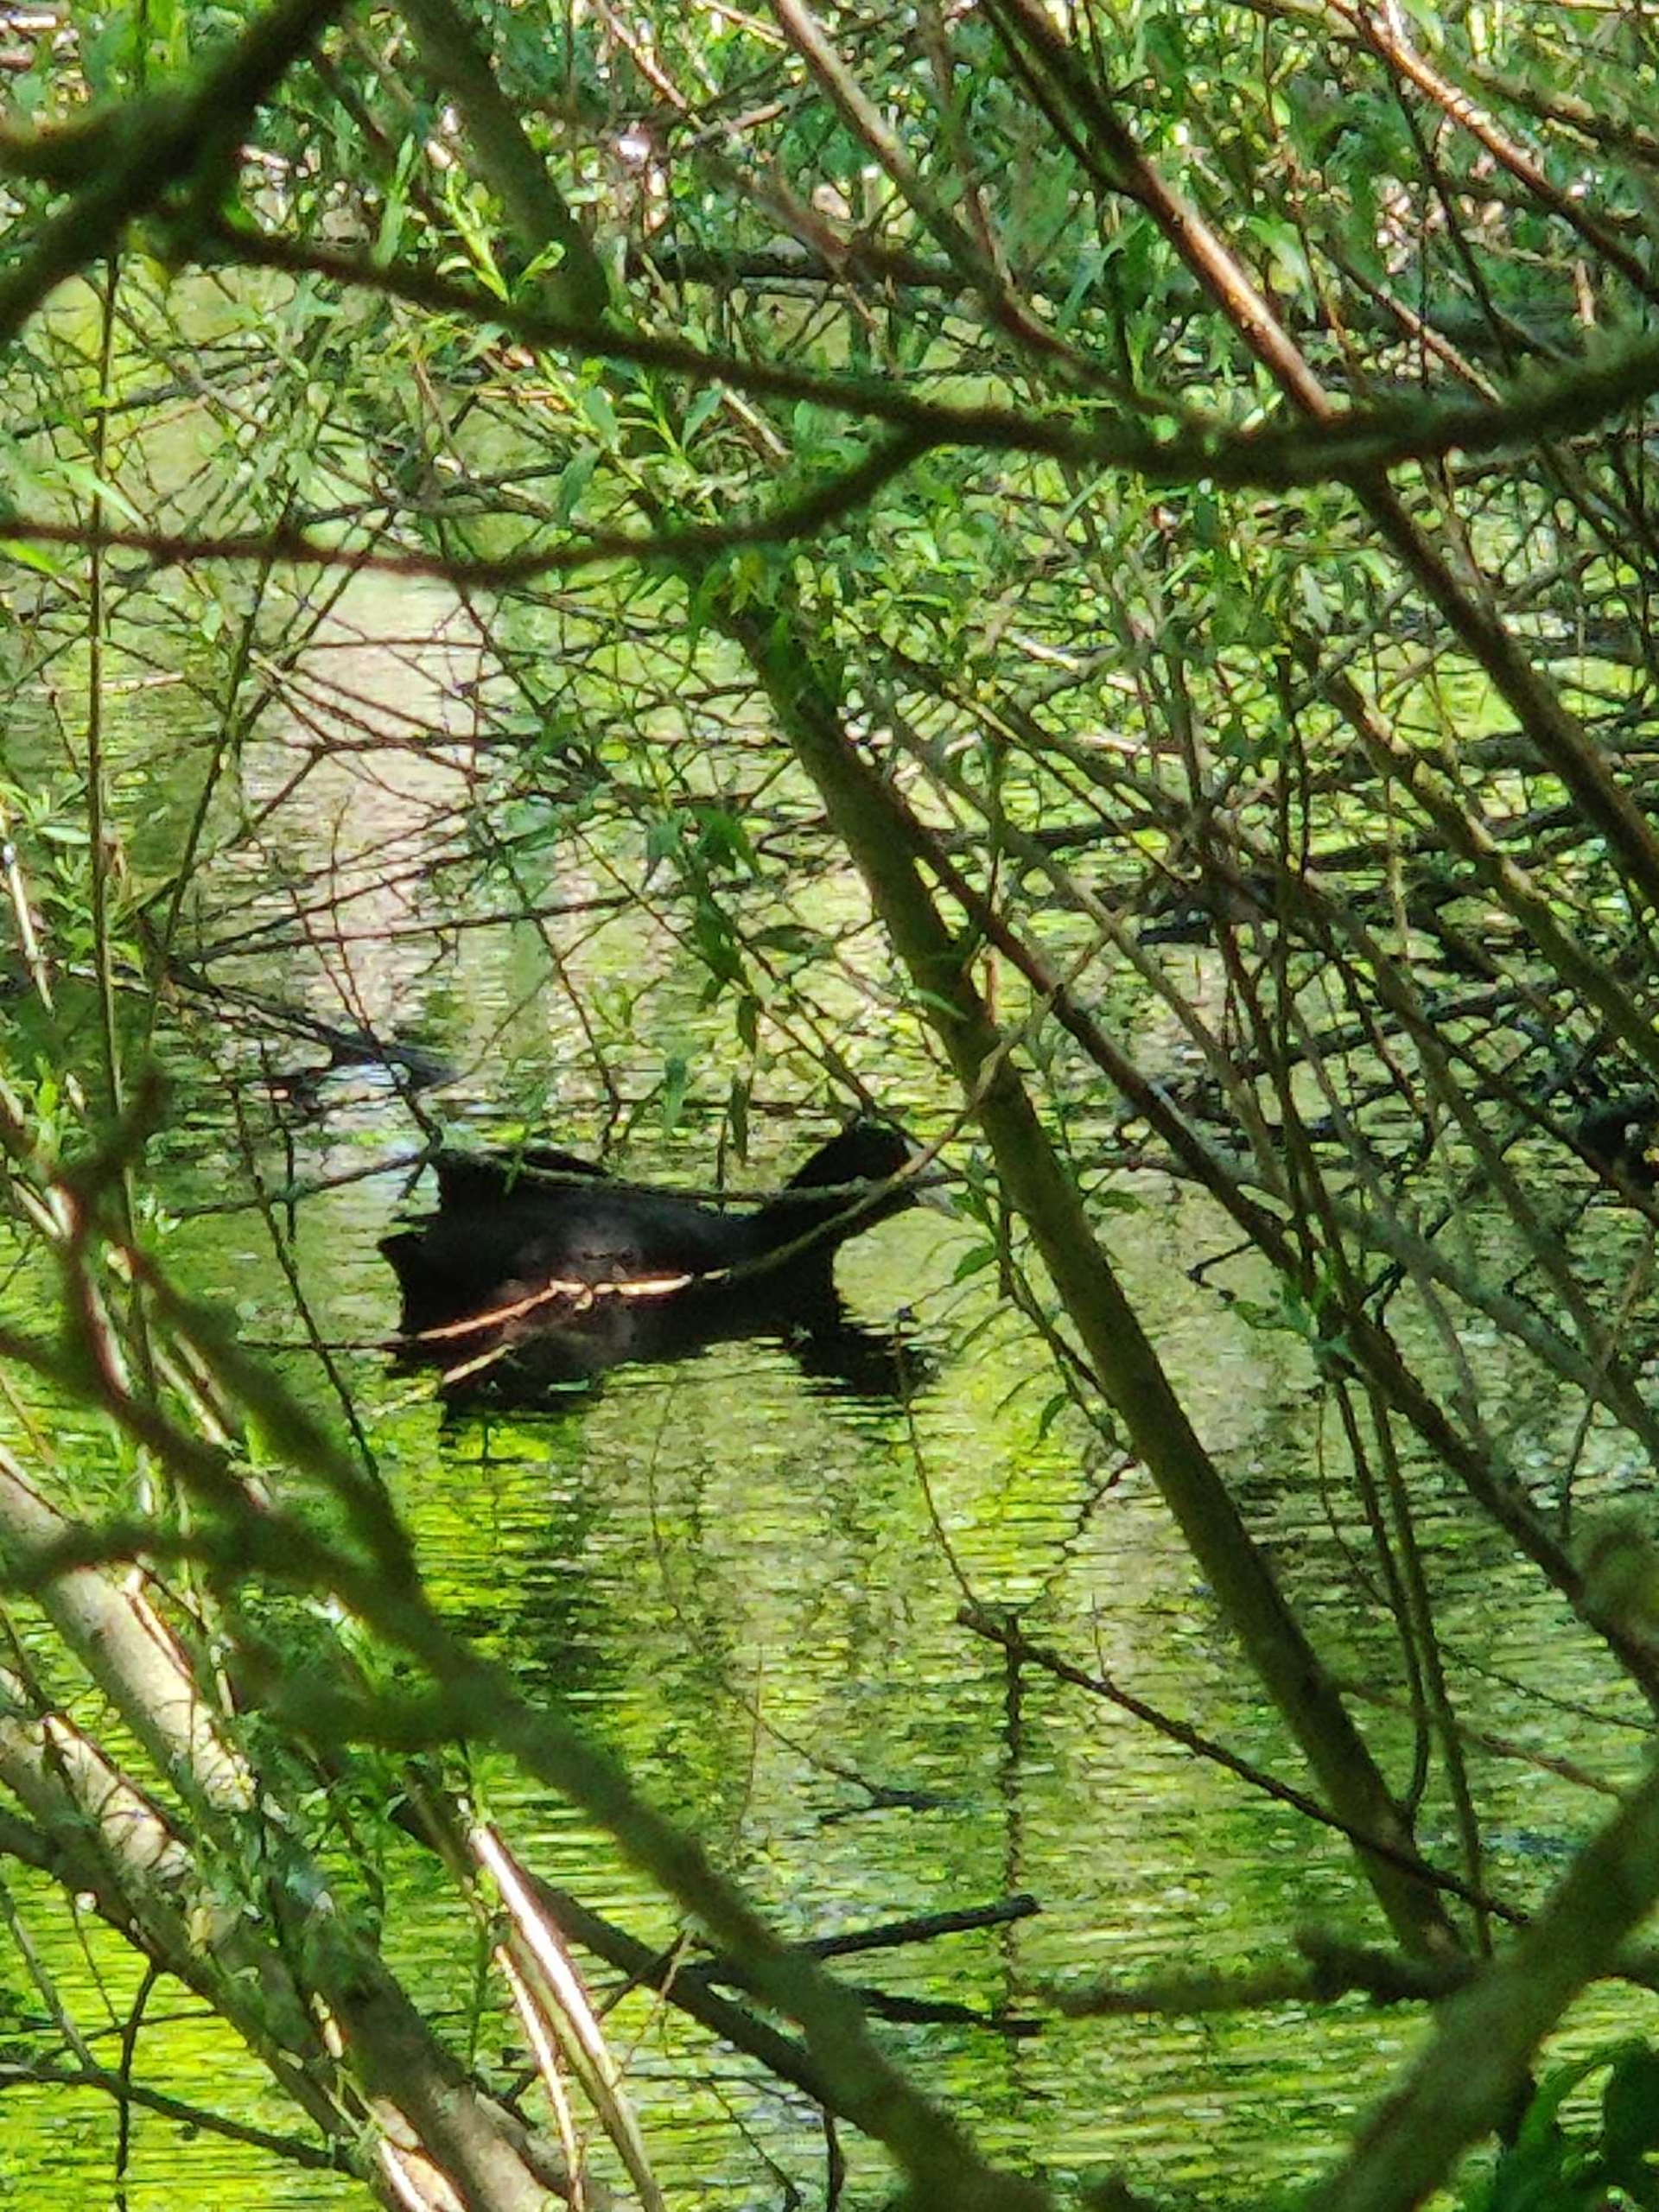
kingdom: Animalia
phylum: Chordata
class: Aves
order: Gruiformes
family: Rallidae
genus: Fulica
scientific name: Fulica atra
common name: Blishøne
